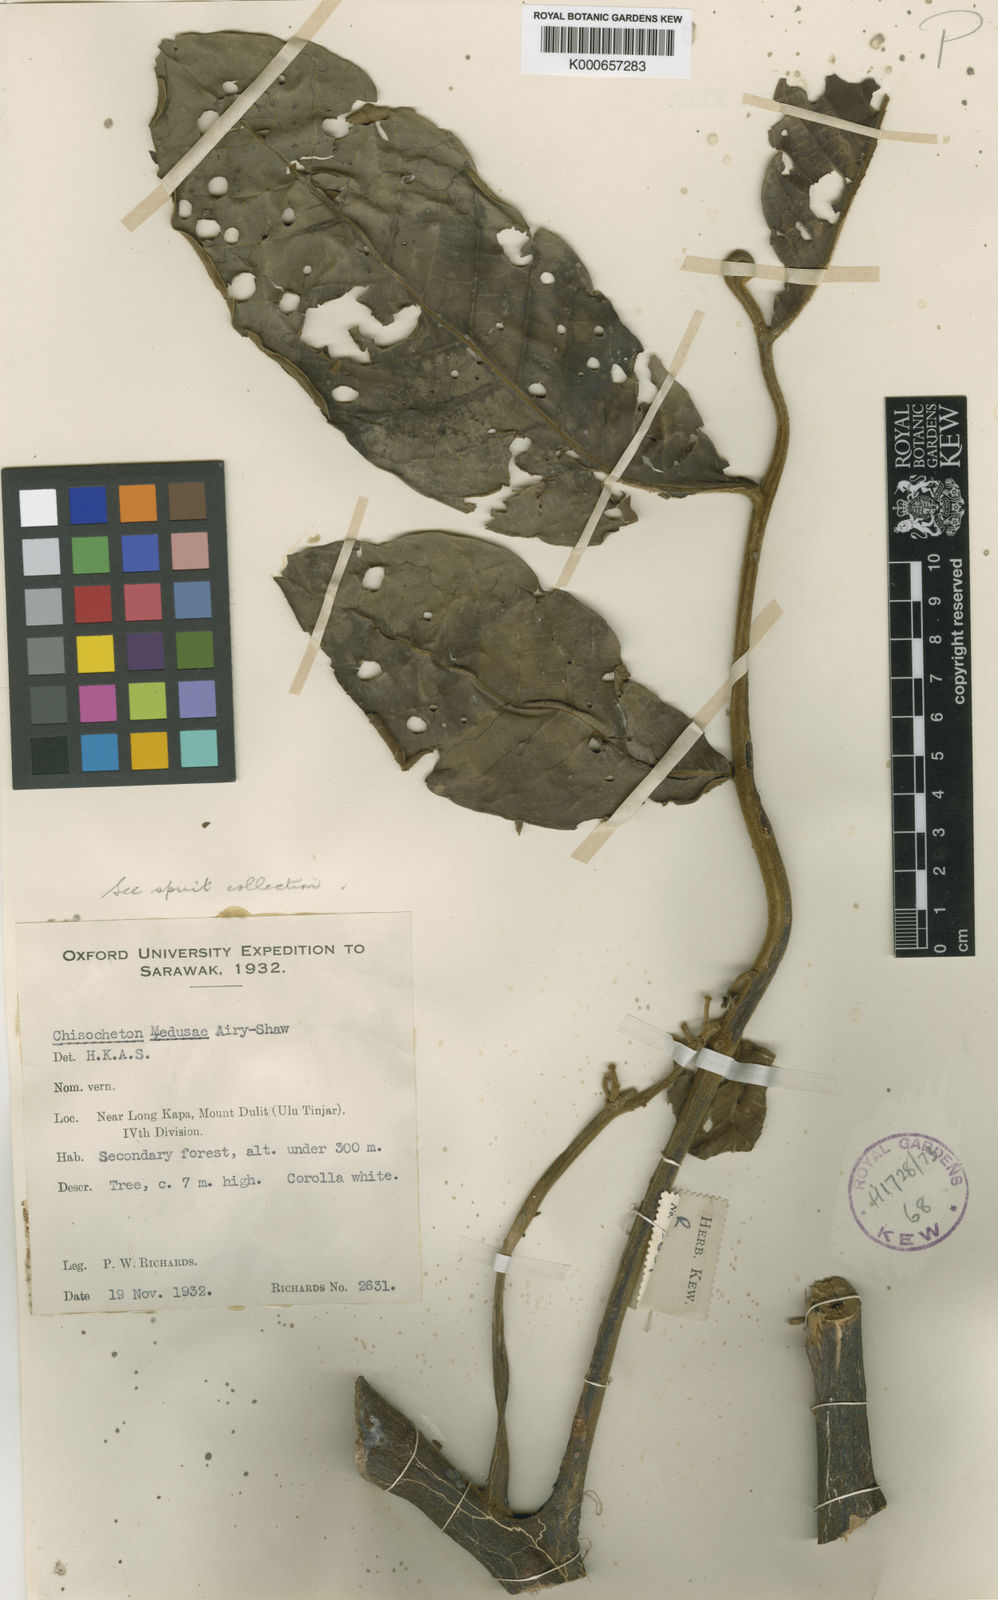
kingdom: Plantae
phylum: Tracheophyta
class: Magnoliopsida
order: Sapindales
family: Meliaceae
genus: Chisocheton
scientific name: Chisocheton medusae
